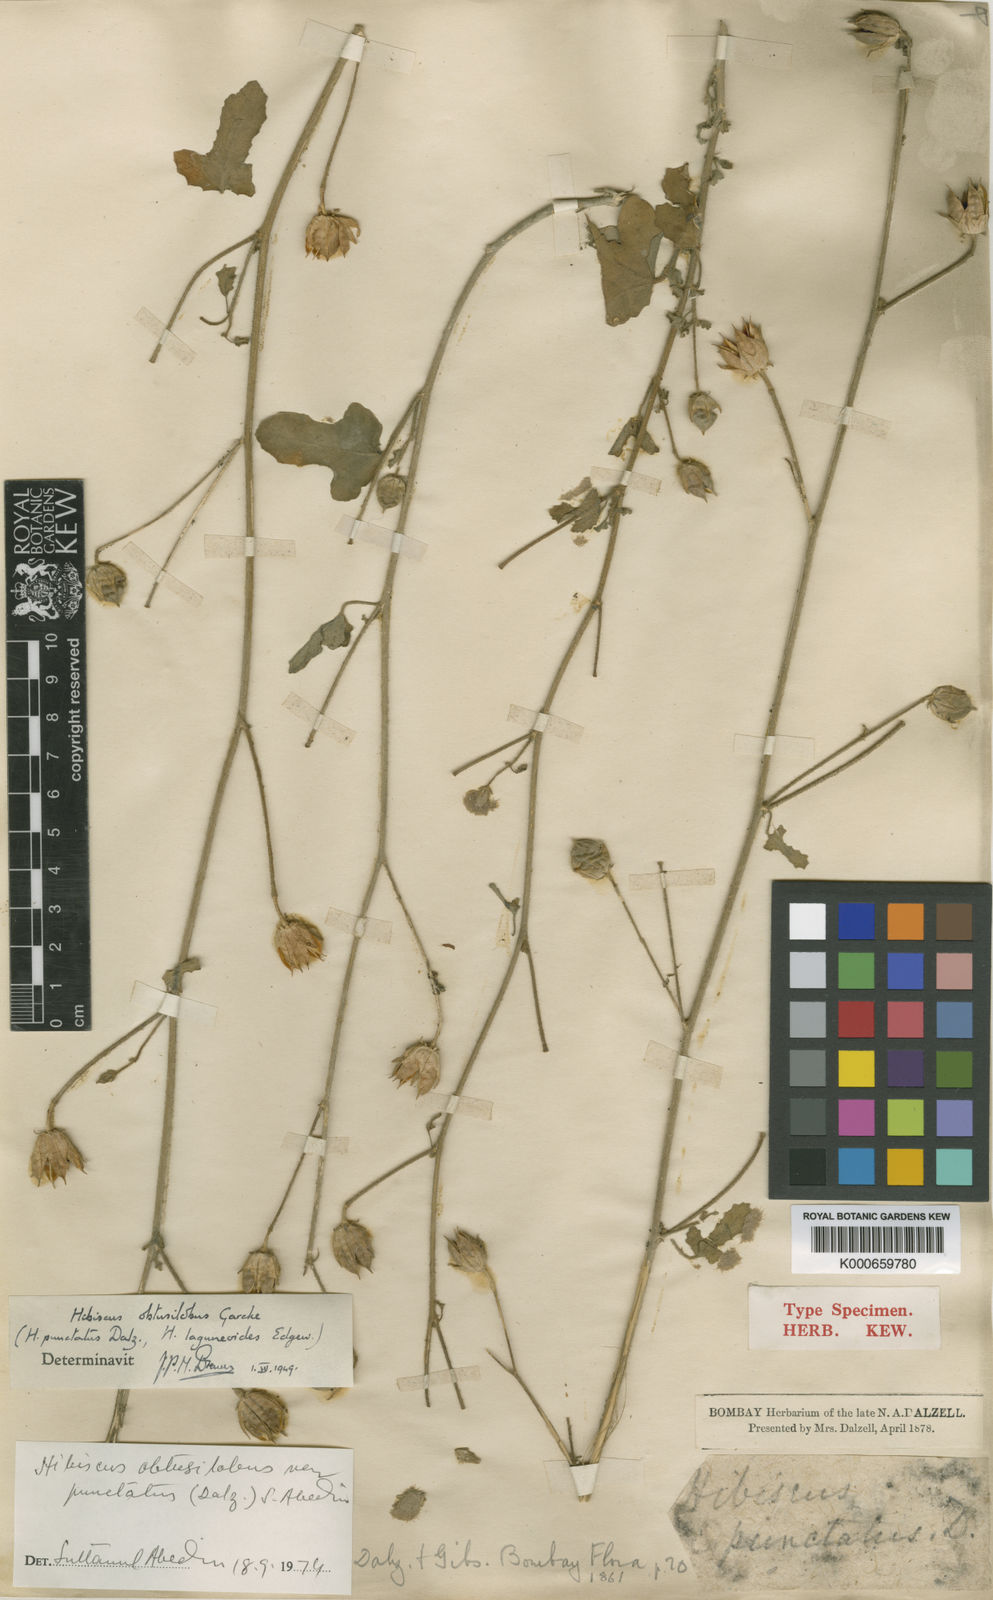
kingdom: Plantae
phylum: Tracheophyta
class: Magnoliopsida
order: Malvales
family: Malvaceae
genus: Hibiscus
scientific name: Hibiscus obtusilobus
